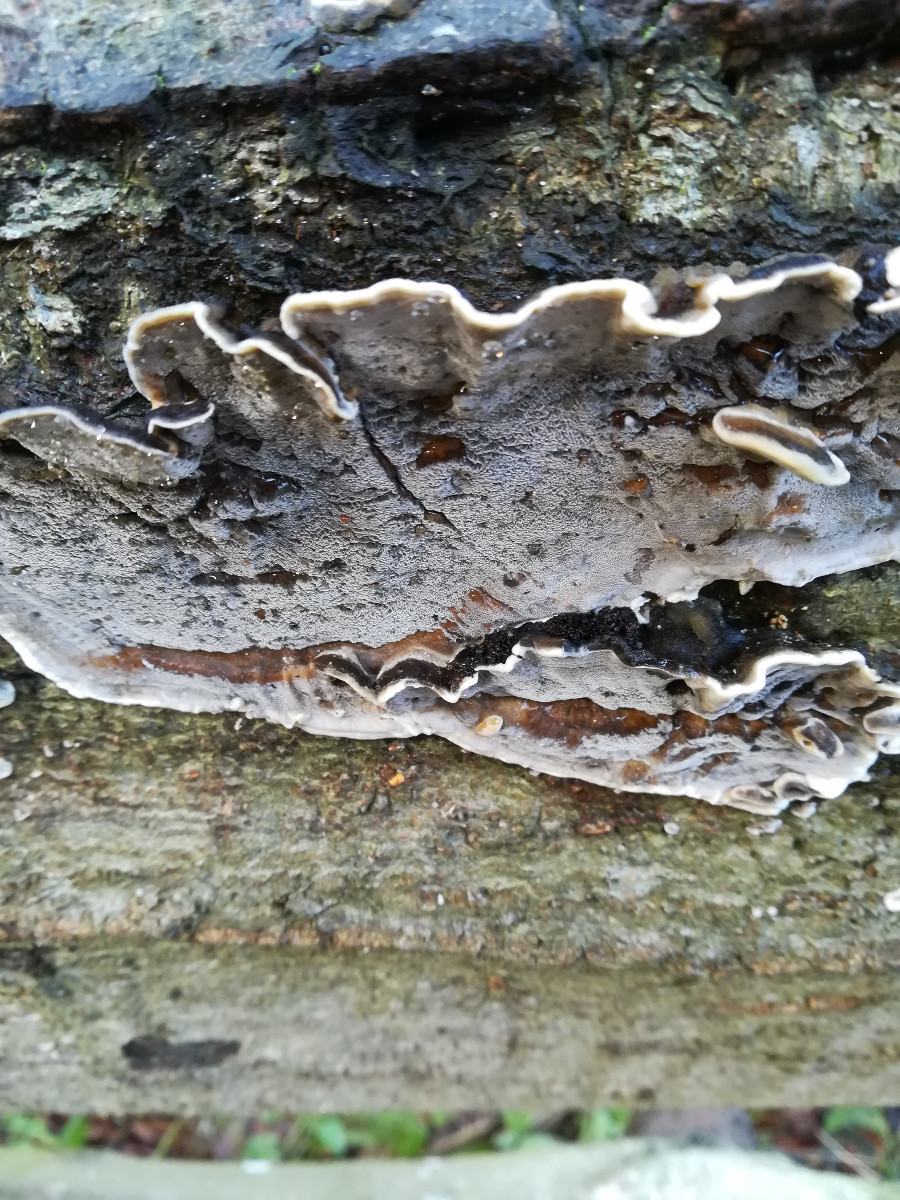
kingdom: Fungi
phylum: Basidiomycota
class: Agaricomycetes
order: Polyporales
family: Phanerochaetaceae
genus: Bjerkandera
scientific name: Bjerkandera adusta
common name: sveden sodporesvamp
